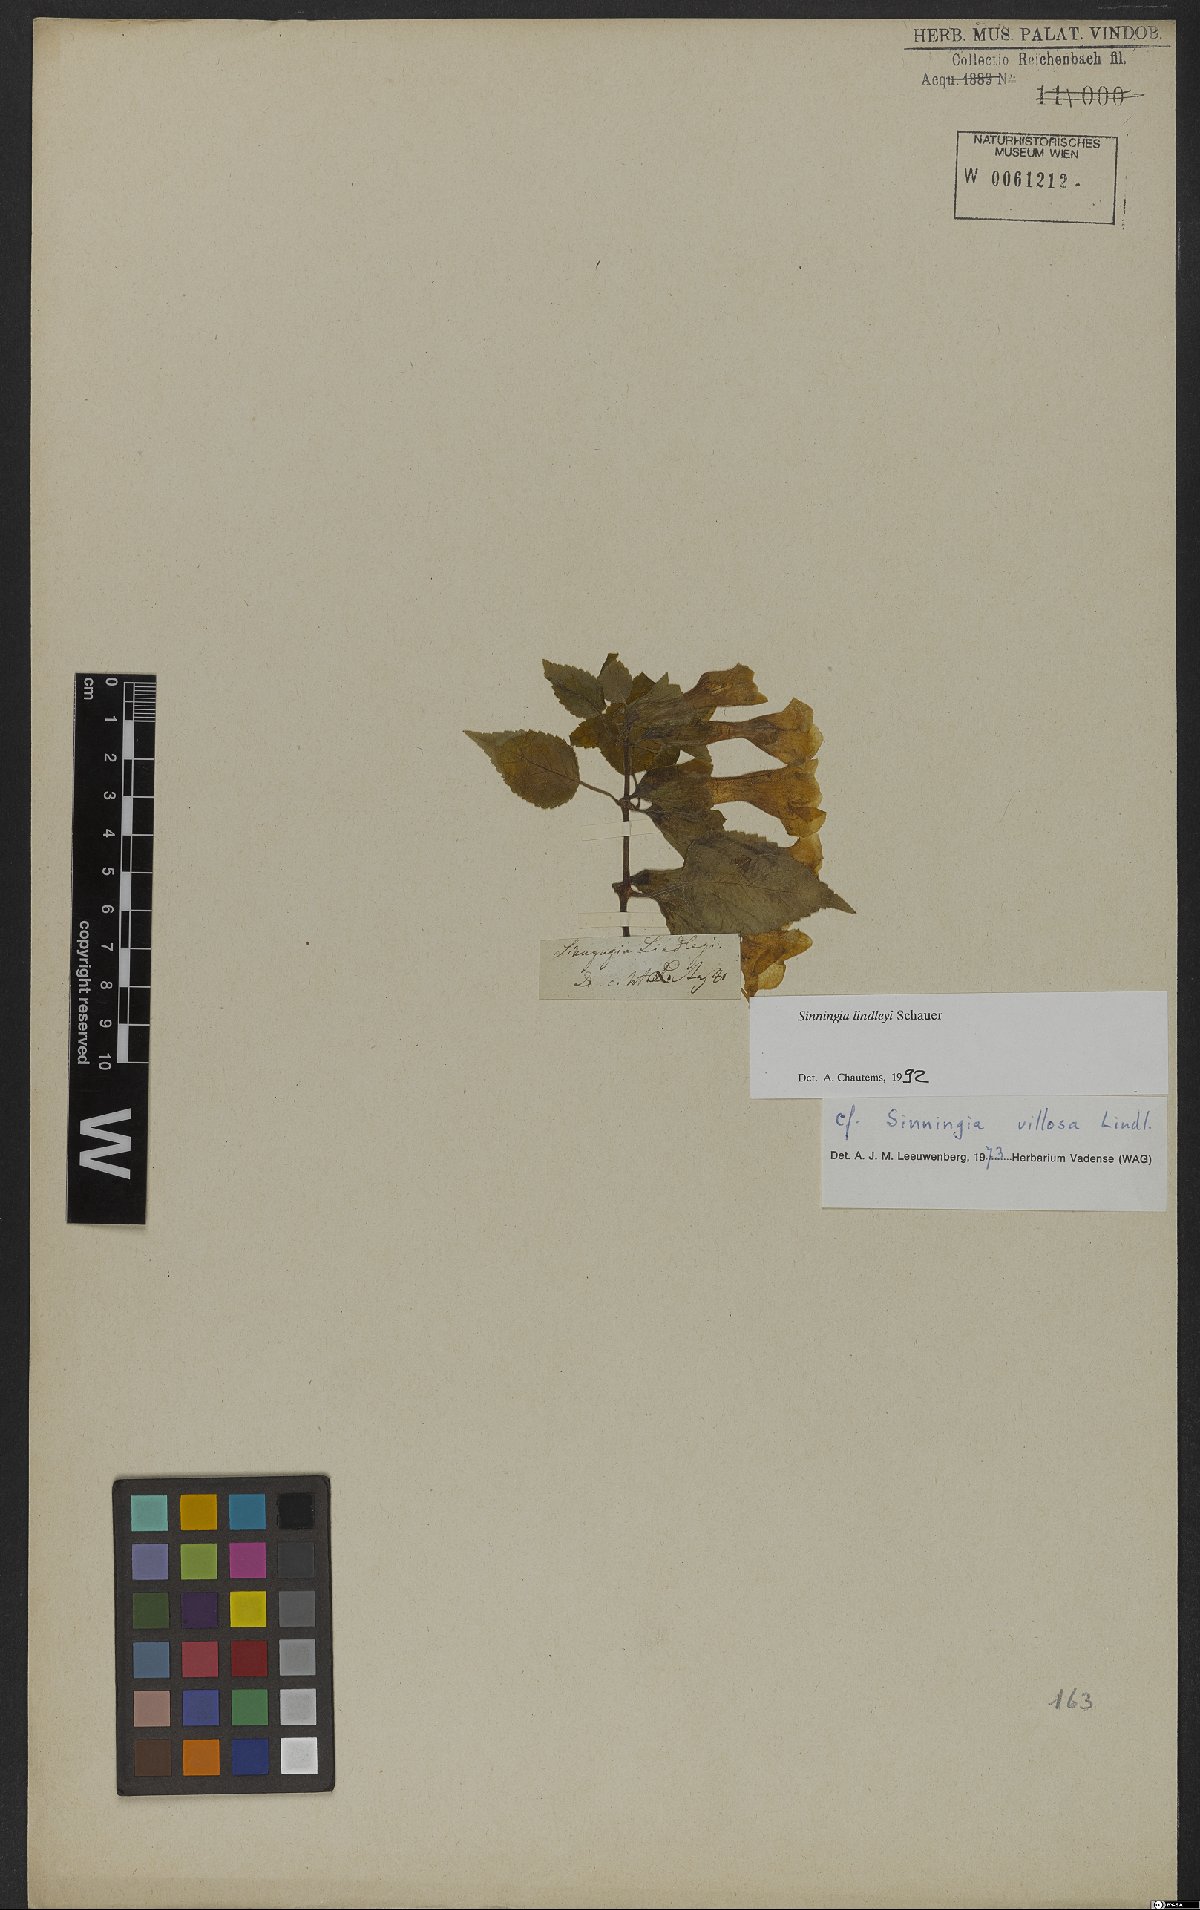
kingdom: Plantae
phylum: Tracheophyta
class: Magnoliopsida
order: Lamiales
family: Gesneriaceae
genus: Sinningia
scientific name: Sinningia lindleyi
